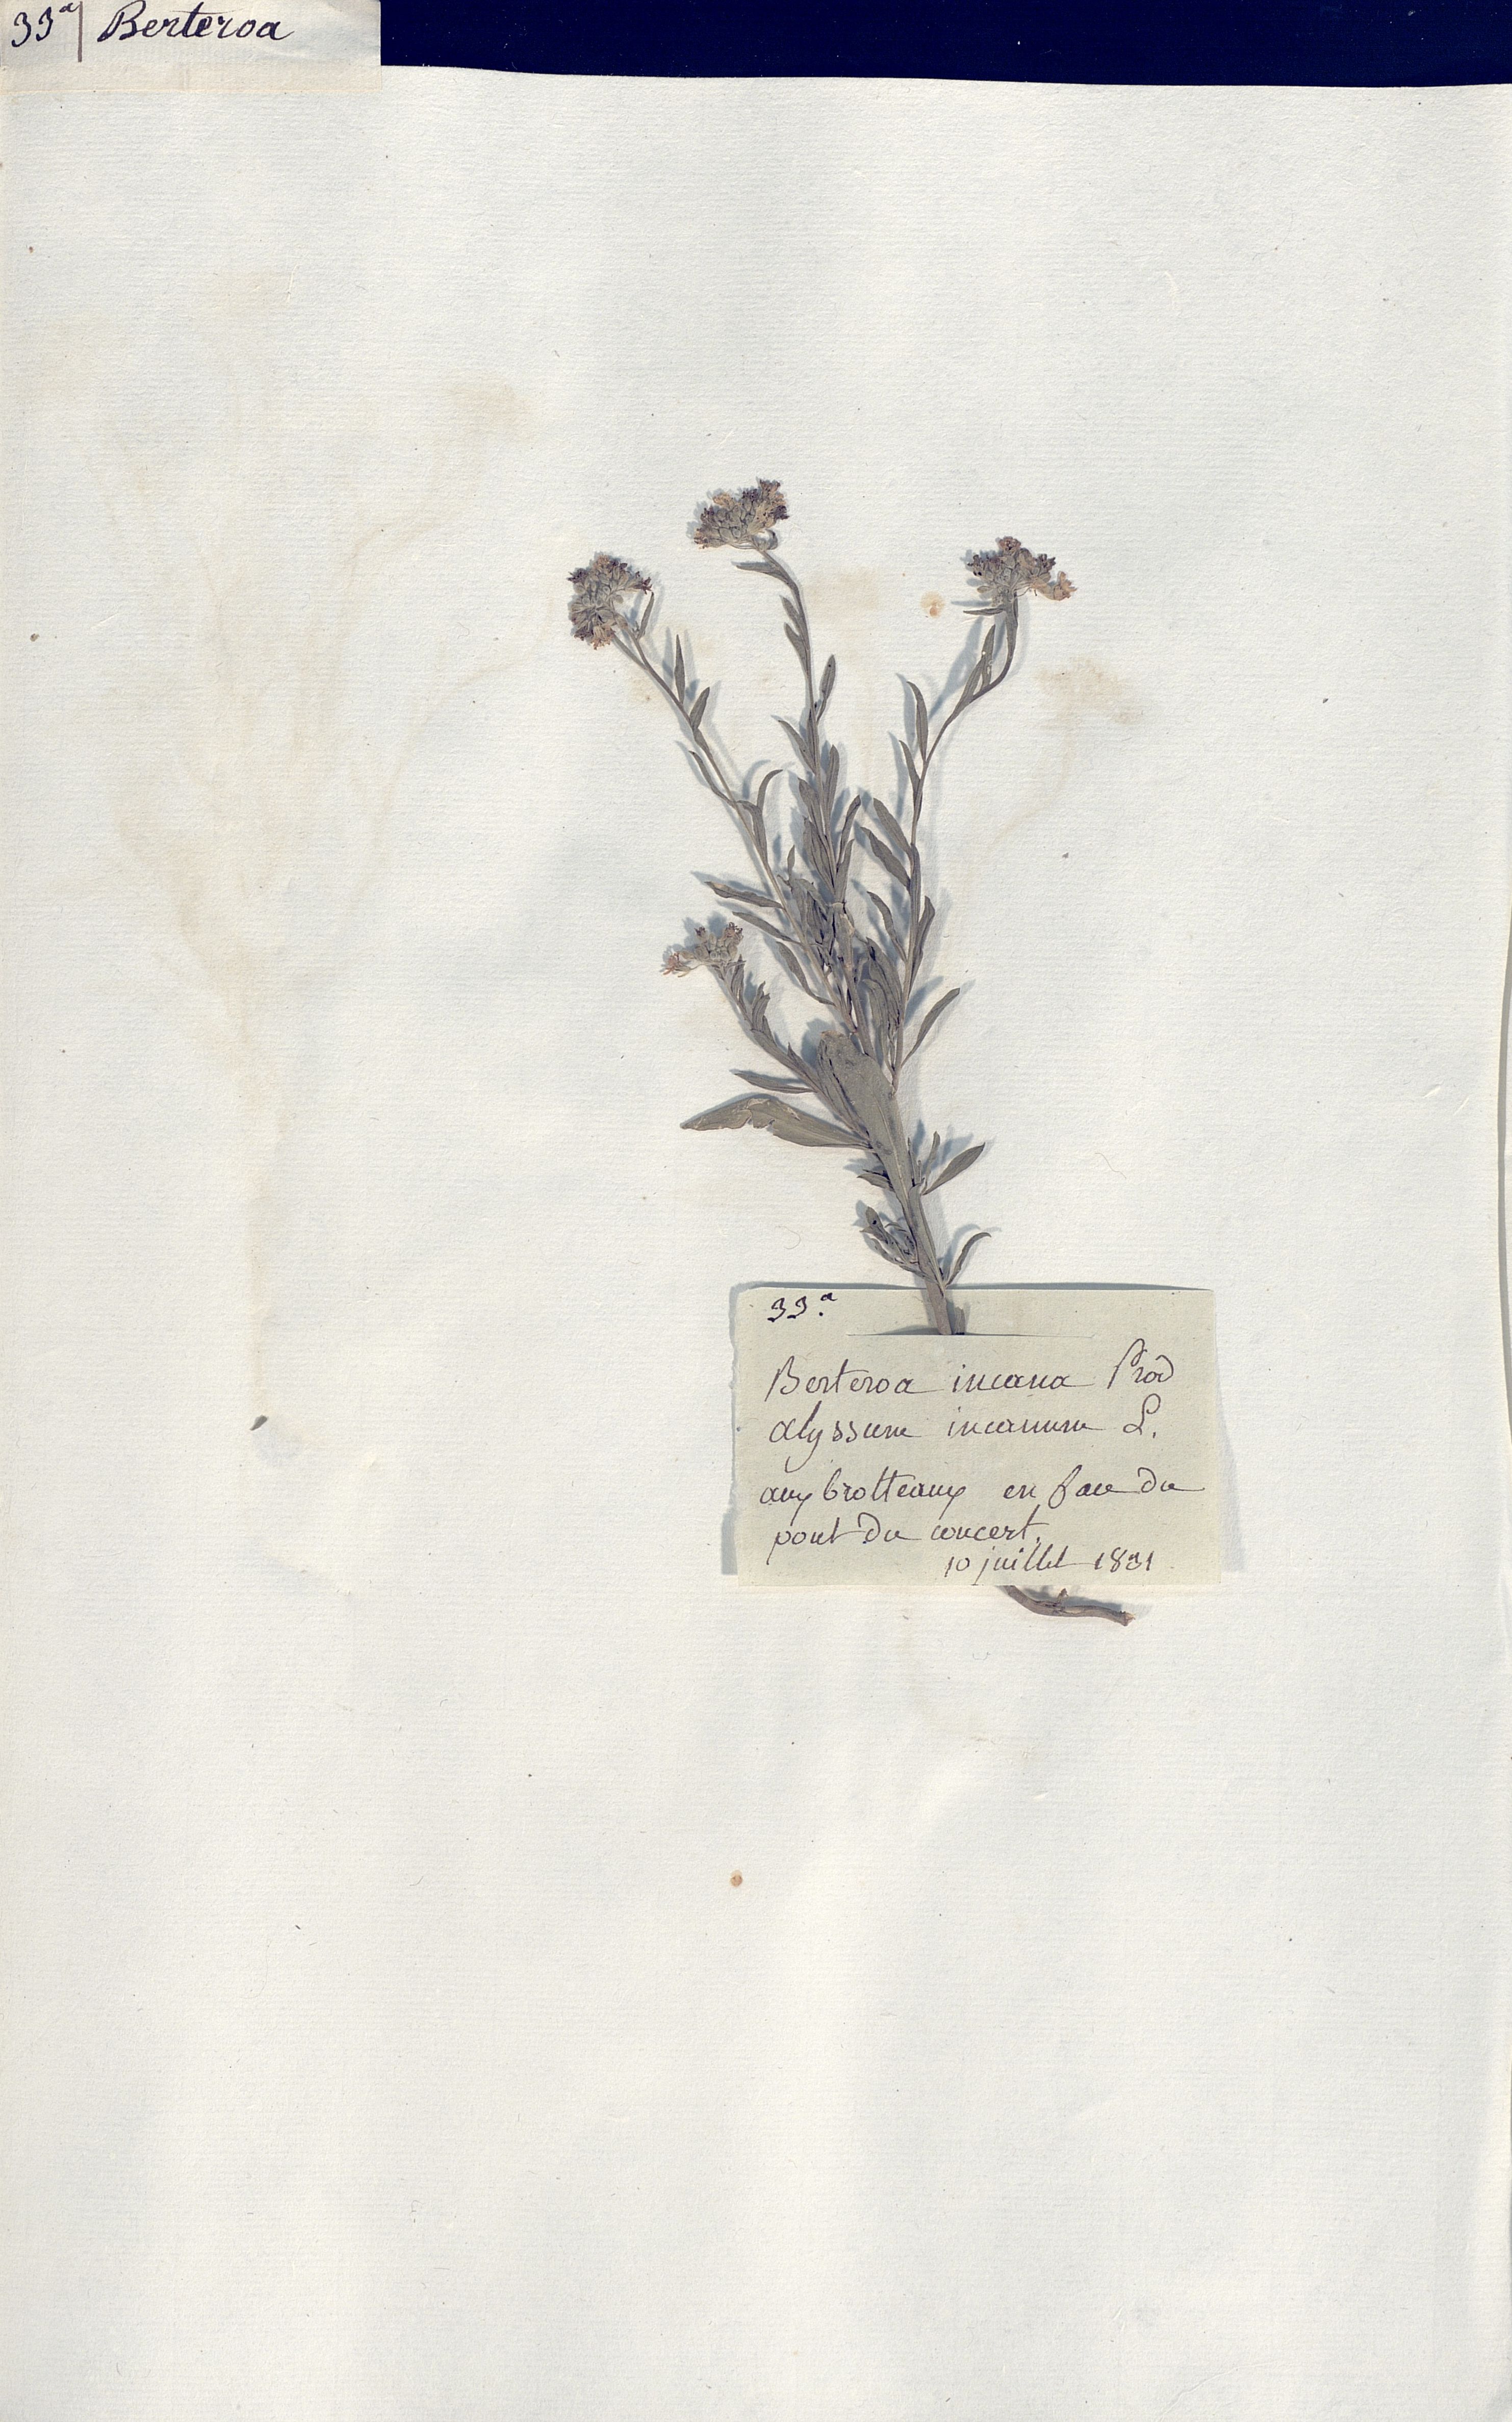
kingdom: Plantae
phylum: Tracheophyta
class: Magnoliopsida
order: Brassicales
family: Brassicaceae
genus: Berteroa
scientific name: Berteroa incana
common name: Hoary alison
